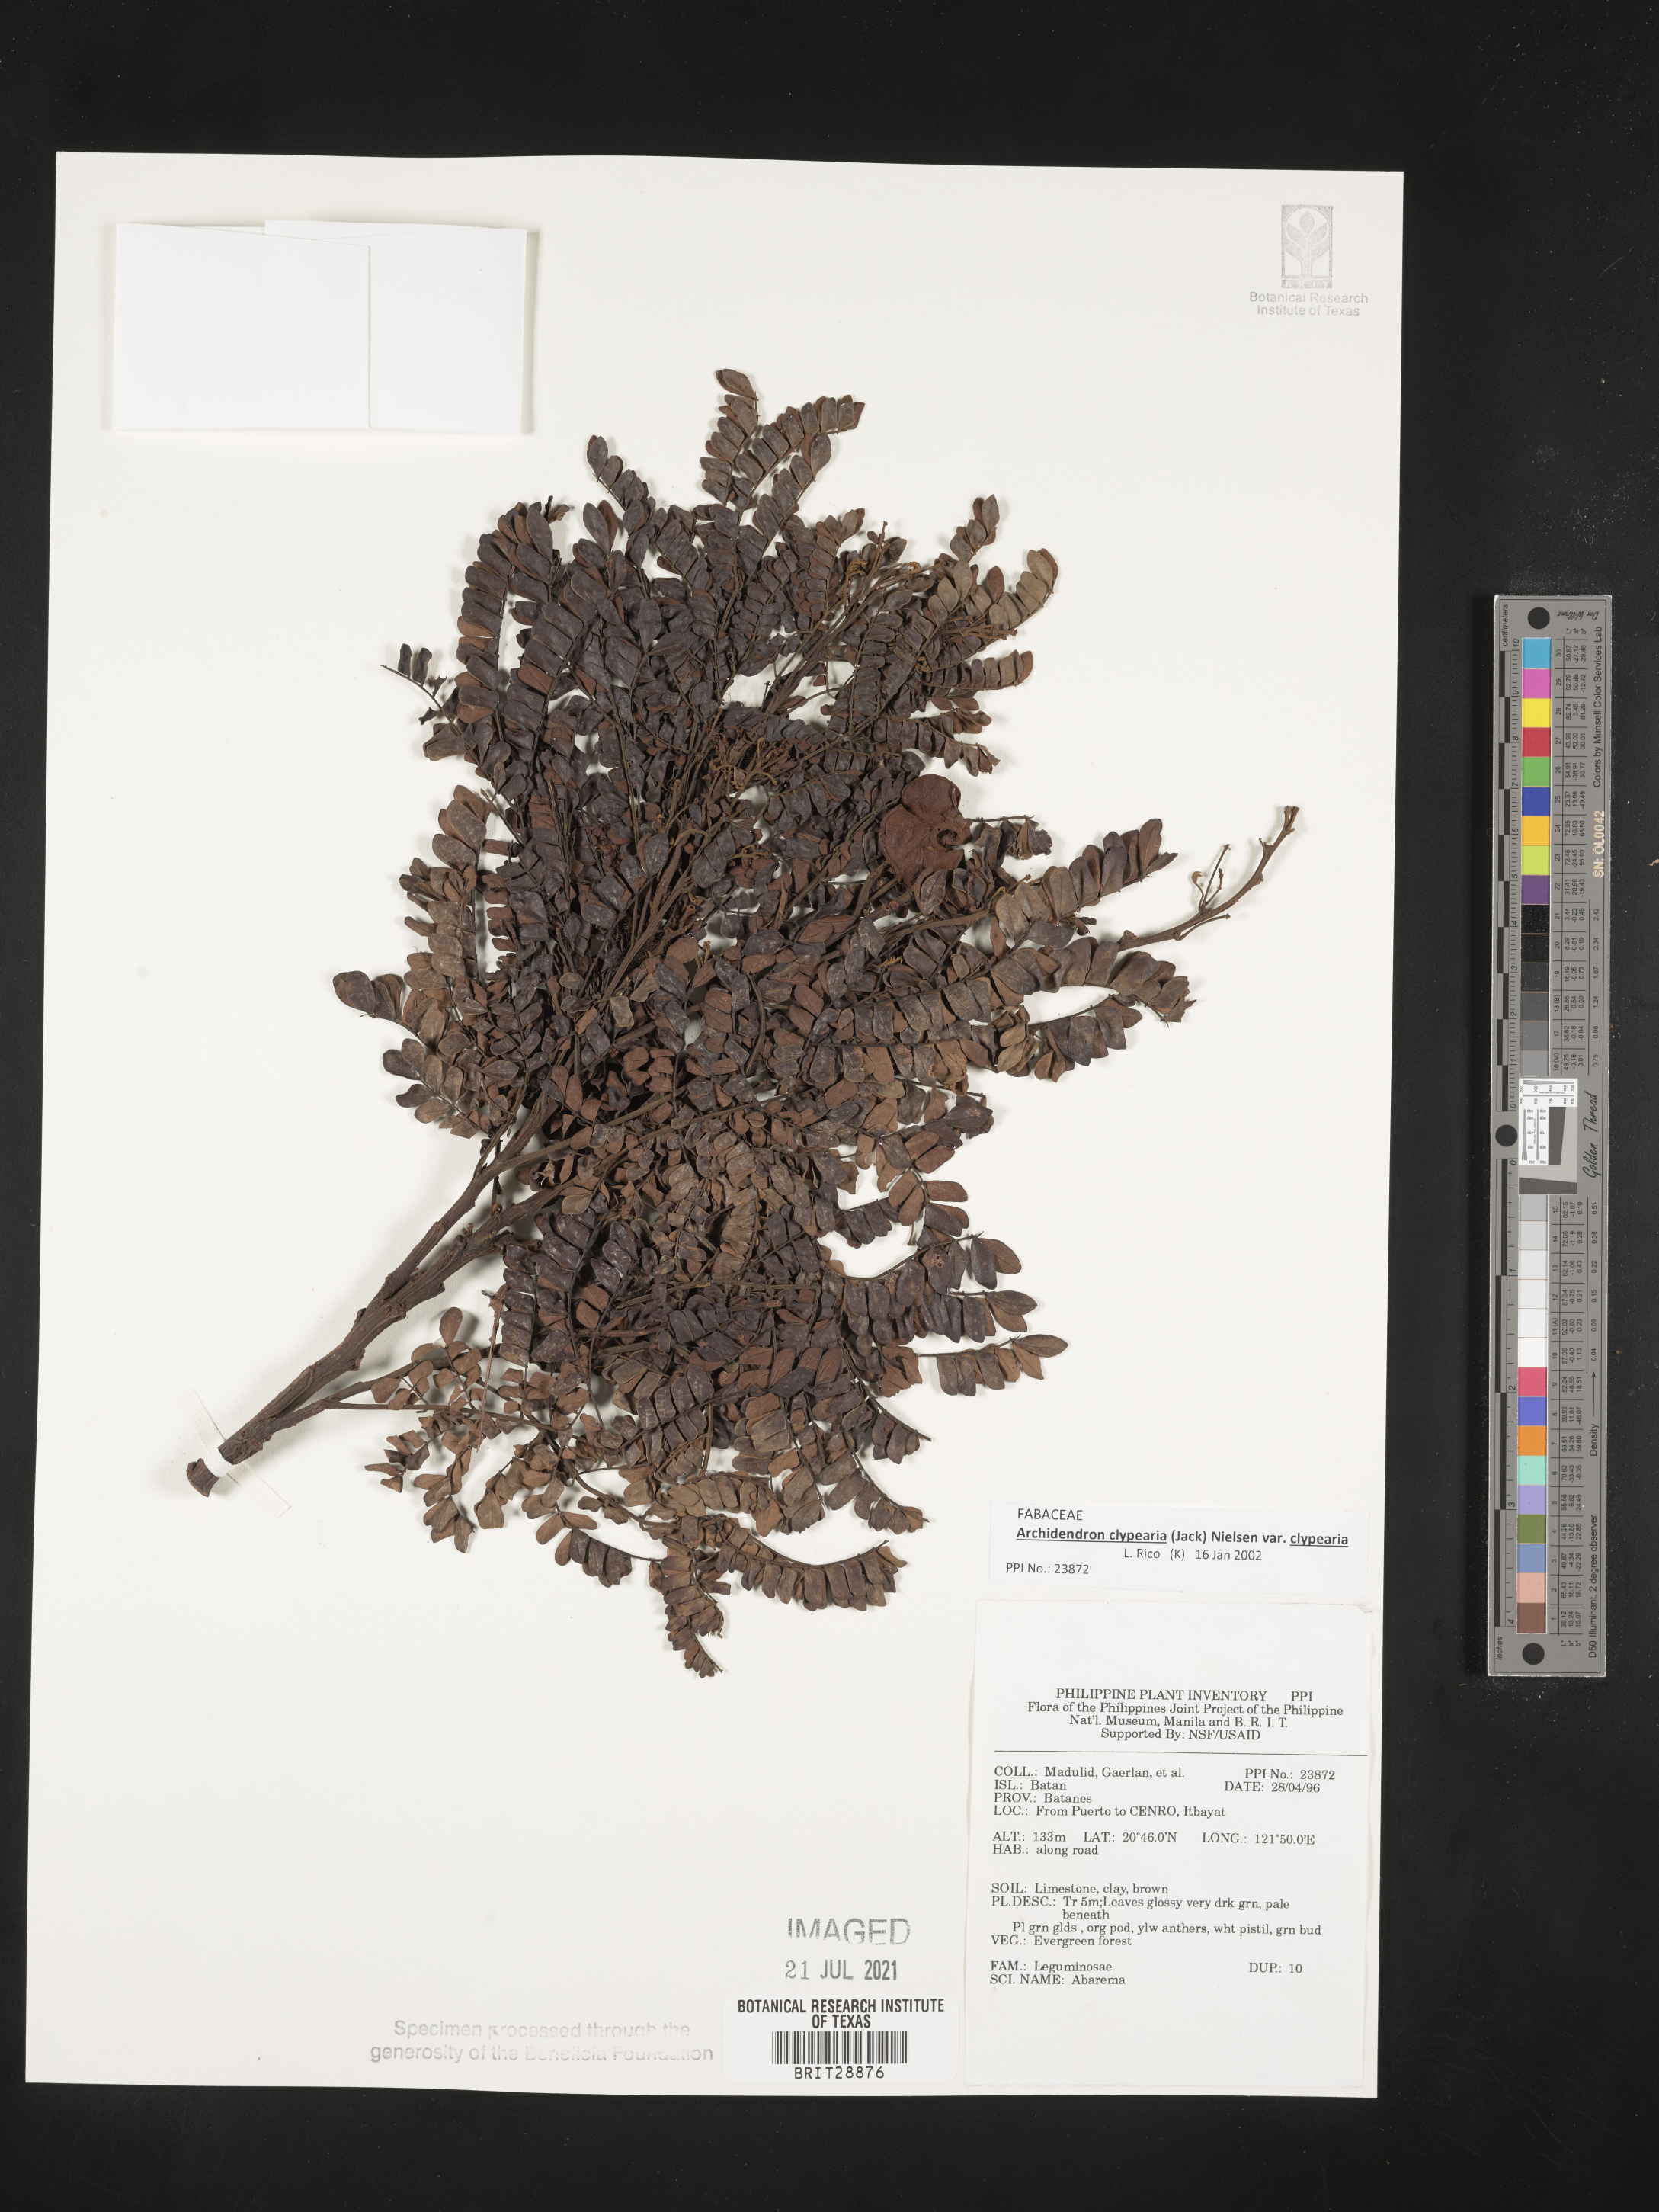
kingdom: Plantae
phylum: Tracheophyta
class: Magnoliopsida
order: Fabales
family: Fabaceae
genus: Abarema
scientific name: Abarema
